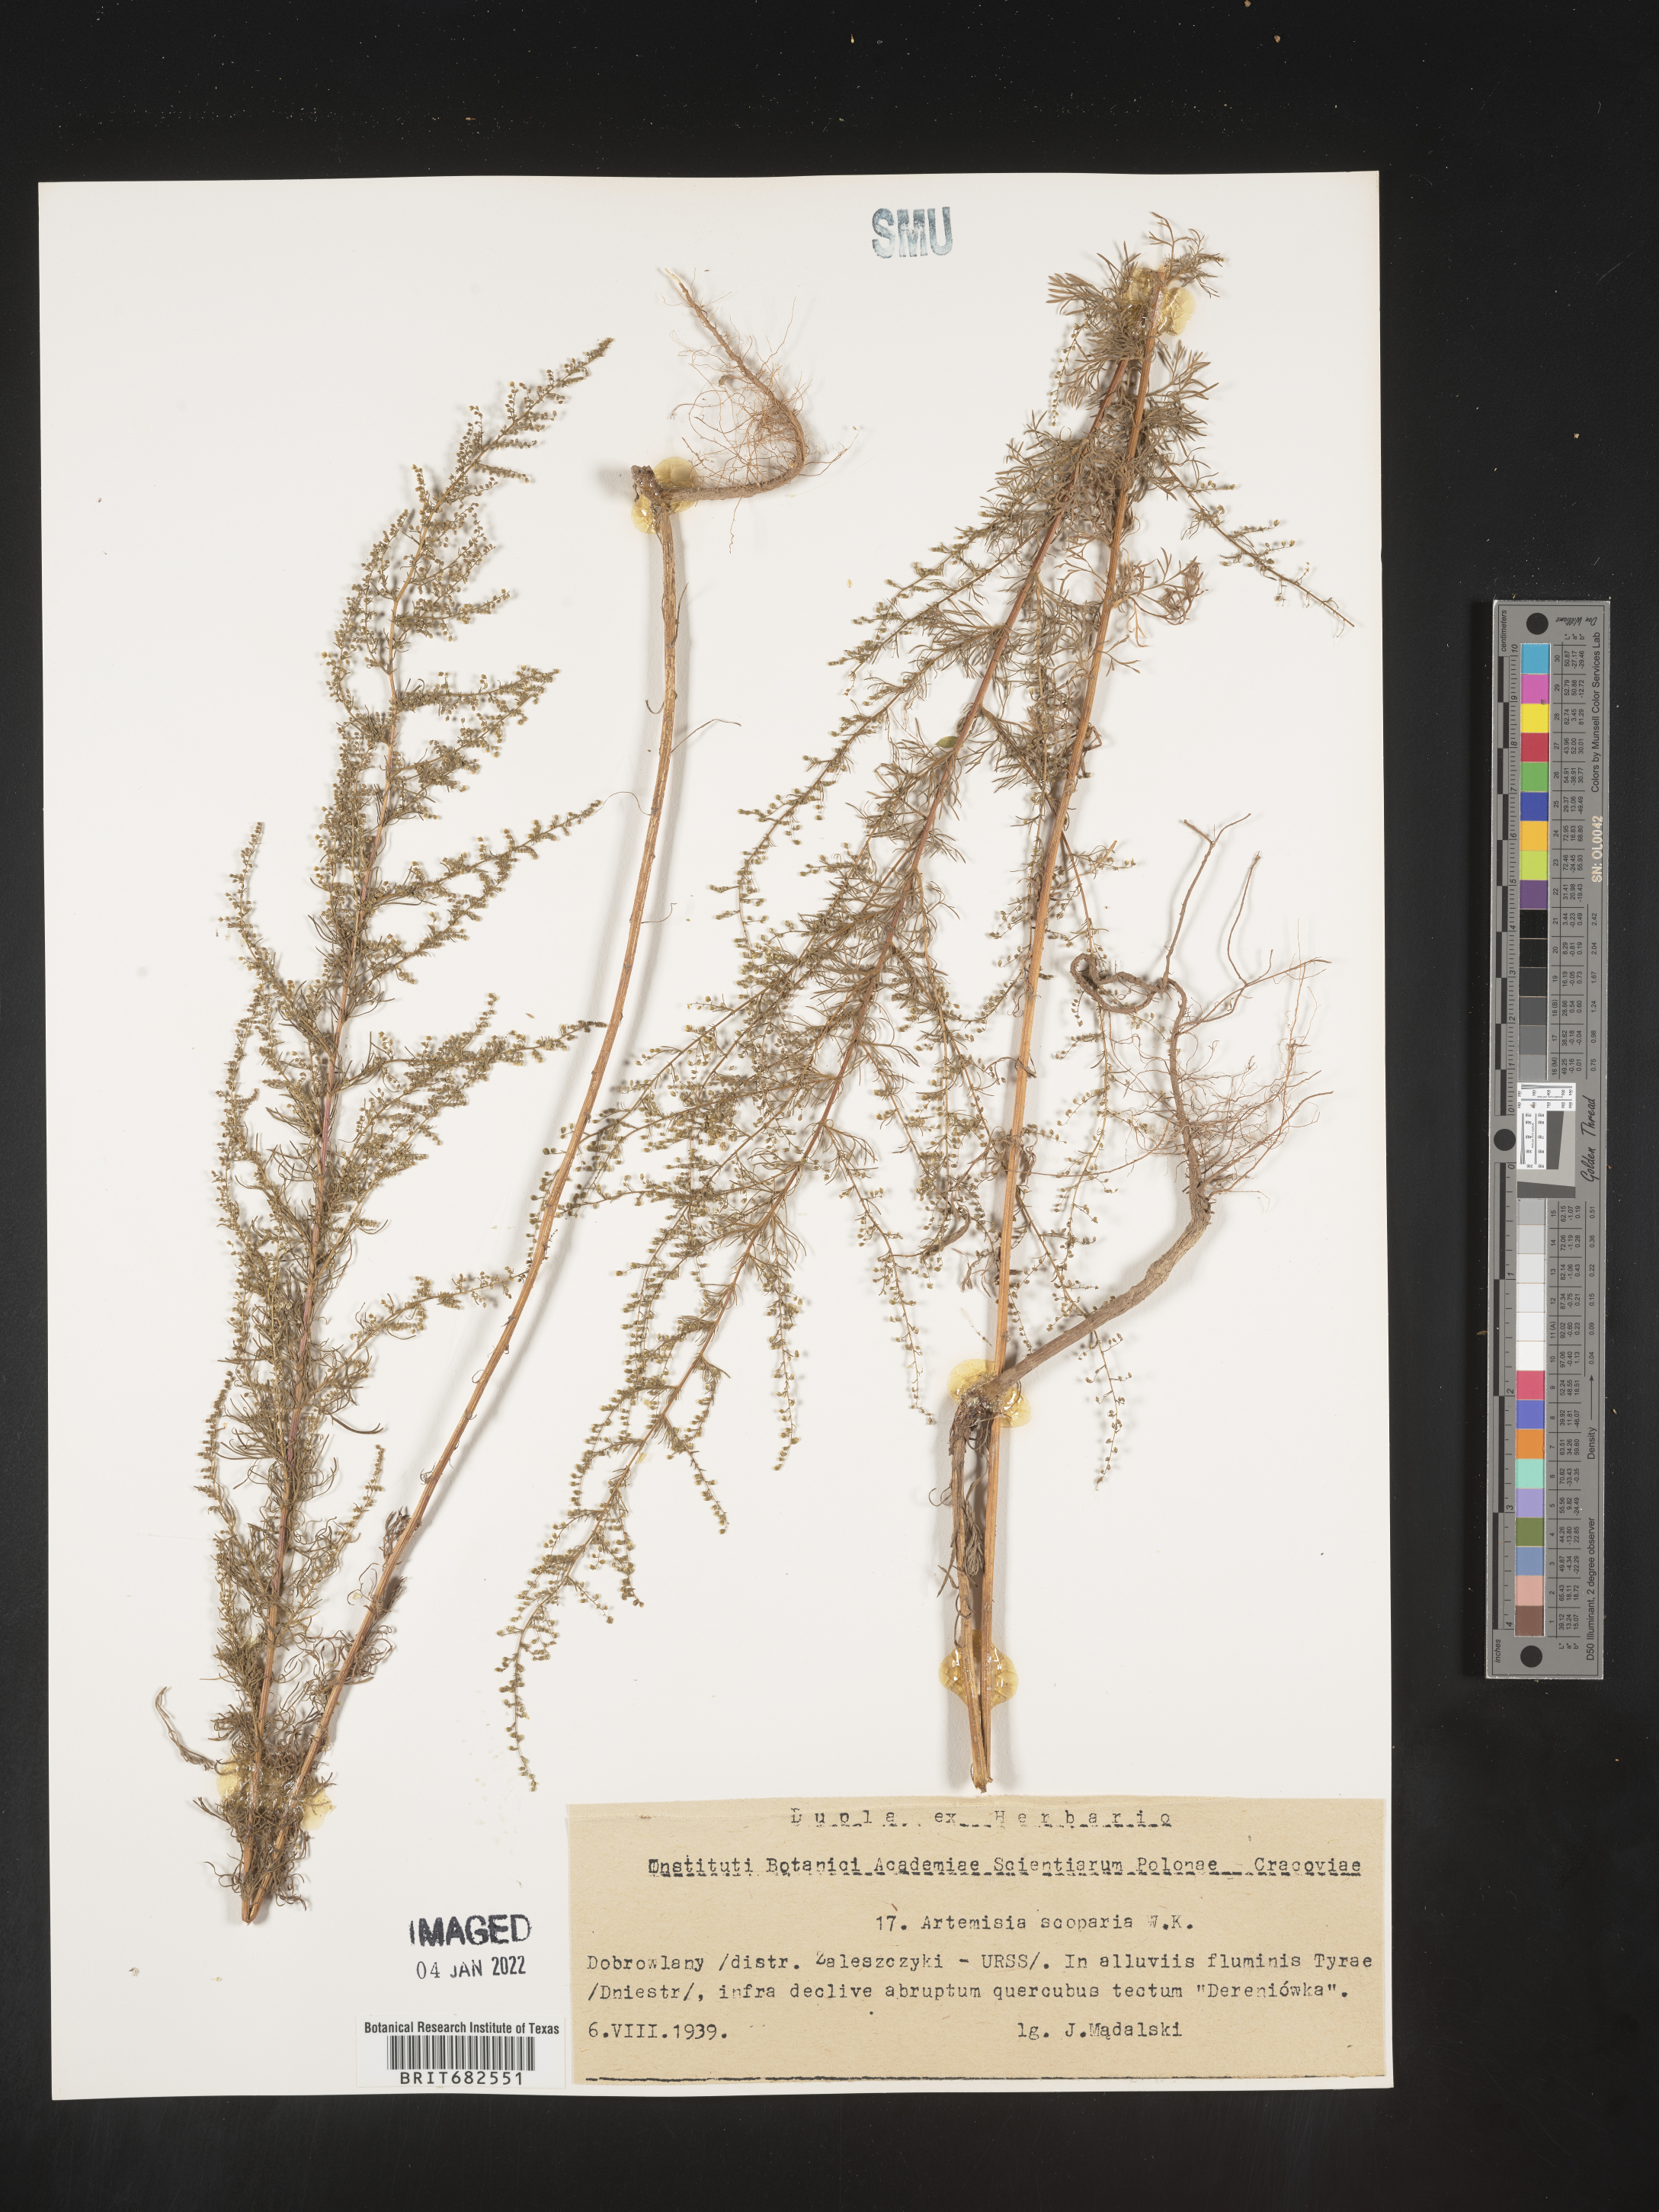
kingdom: Plantae
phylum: Tracheophyta
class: Magnoliopsida
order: Asterales
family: Asteraceae
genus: Artemisia
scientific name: Artemisia
